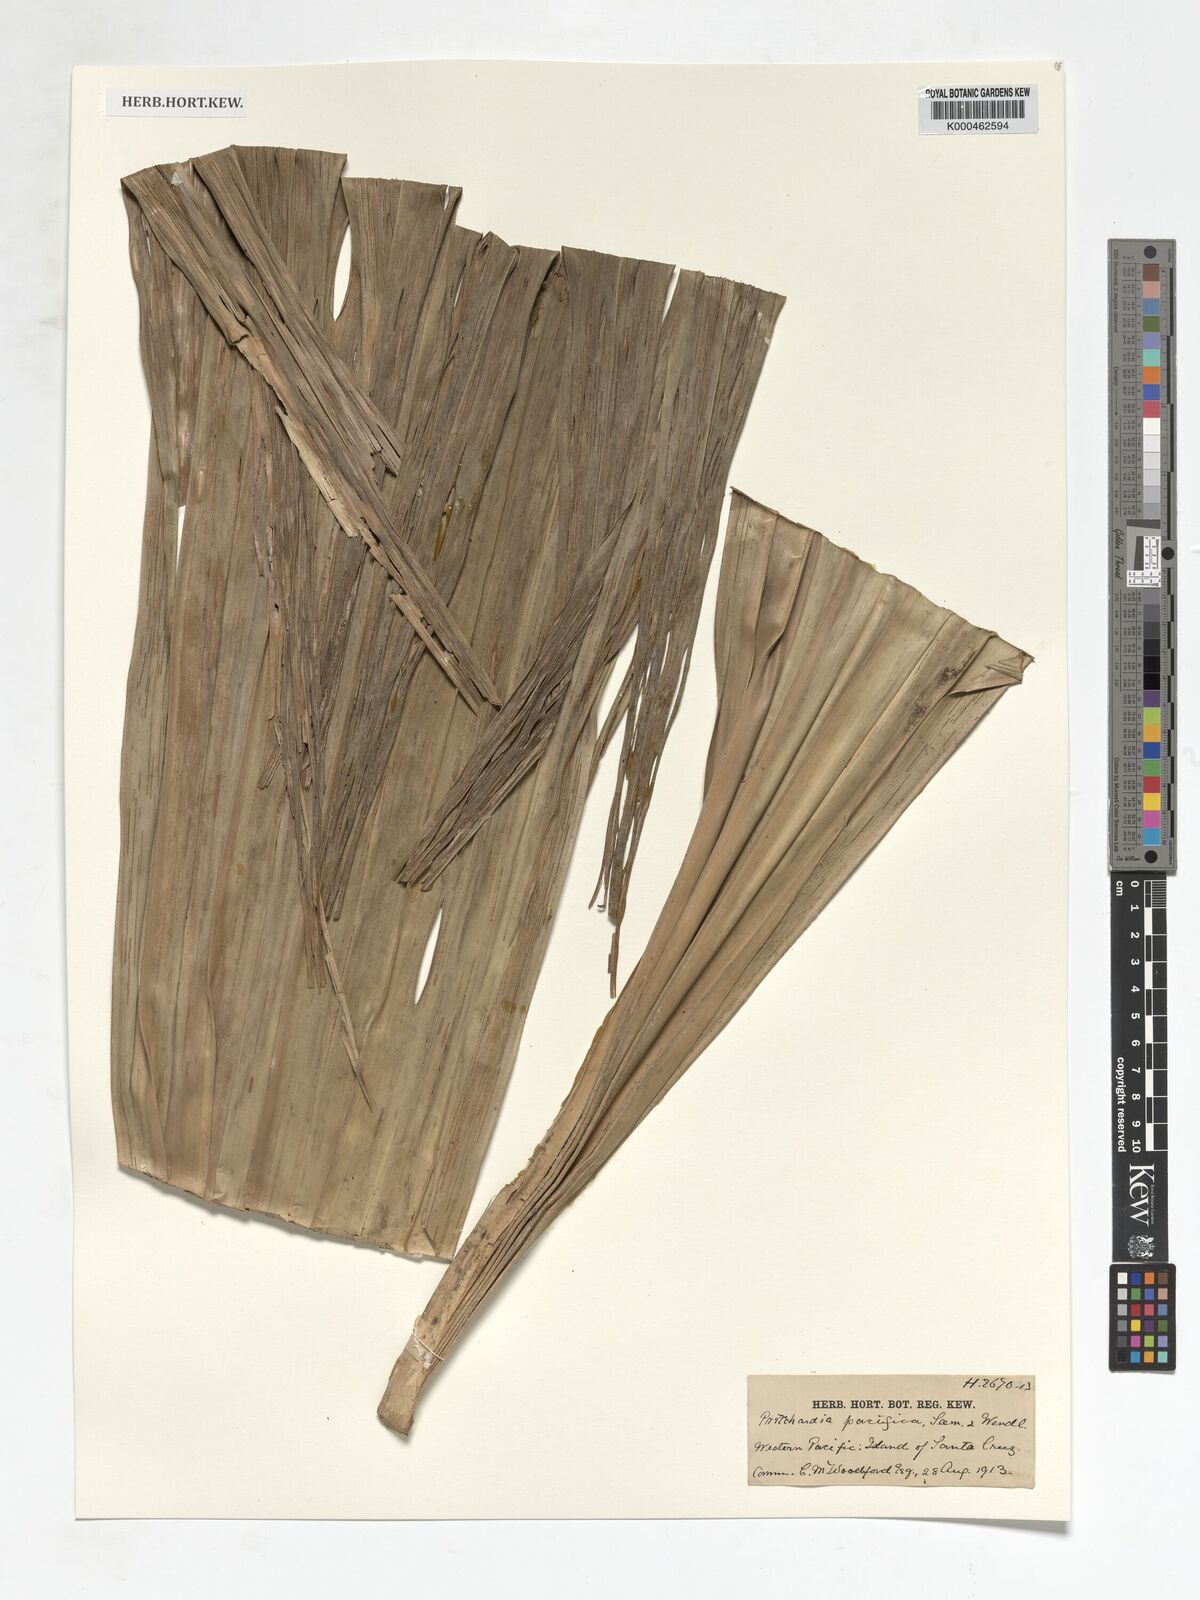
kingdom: Plantae
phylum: Tracheophyta
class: Liliopsida
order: Arecales
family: Arecaceae
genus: Pritchardia
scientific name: Pritchardia pacifica
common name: Fiji fan palm
